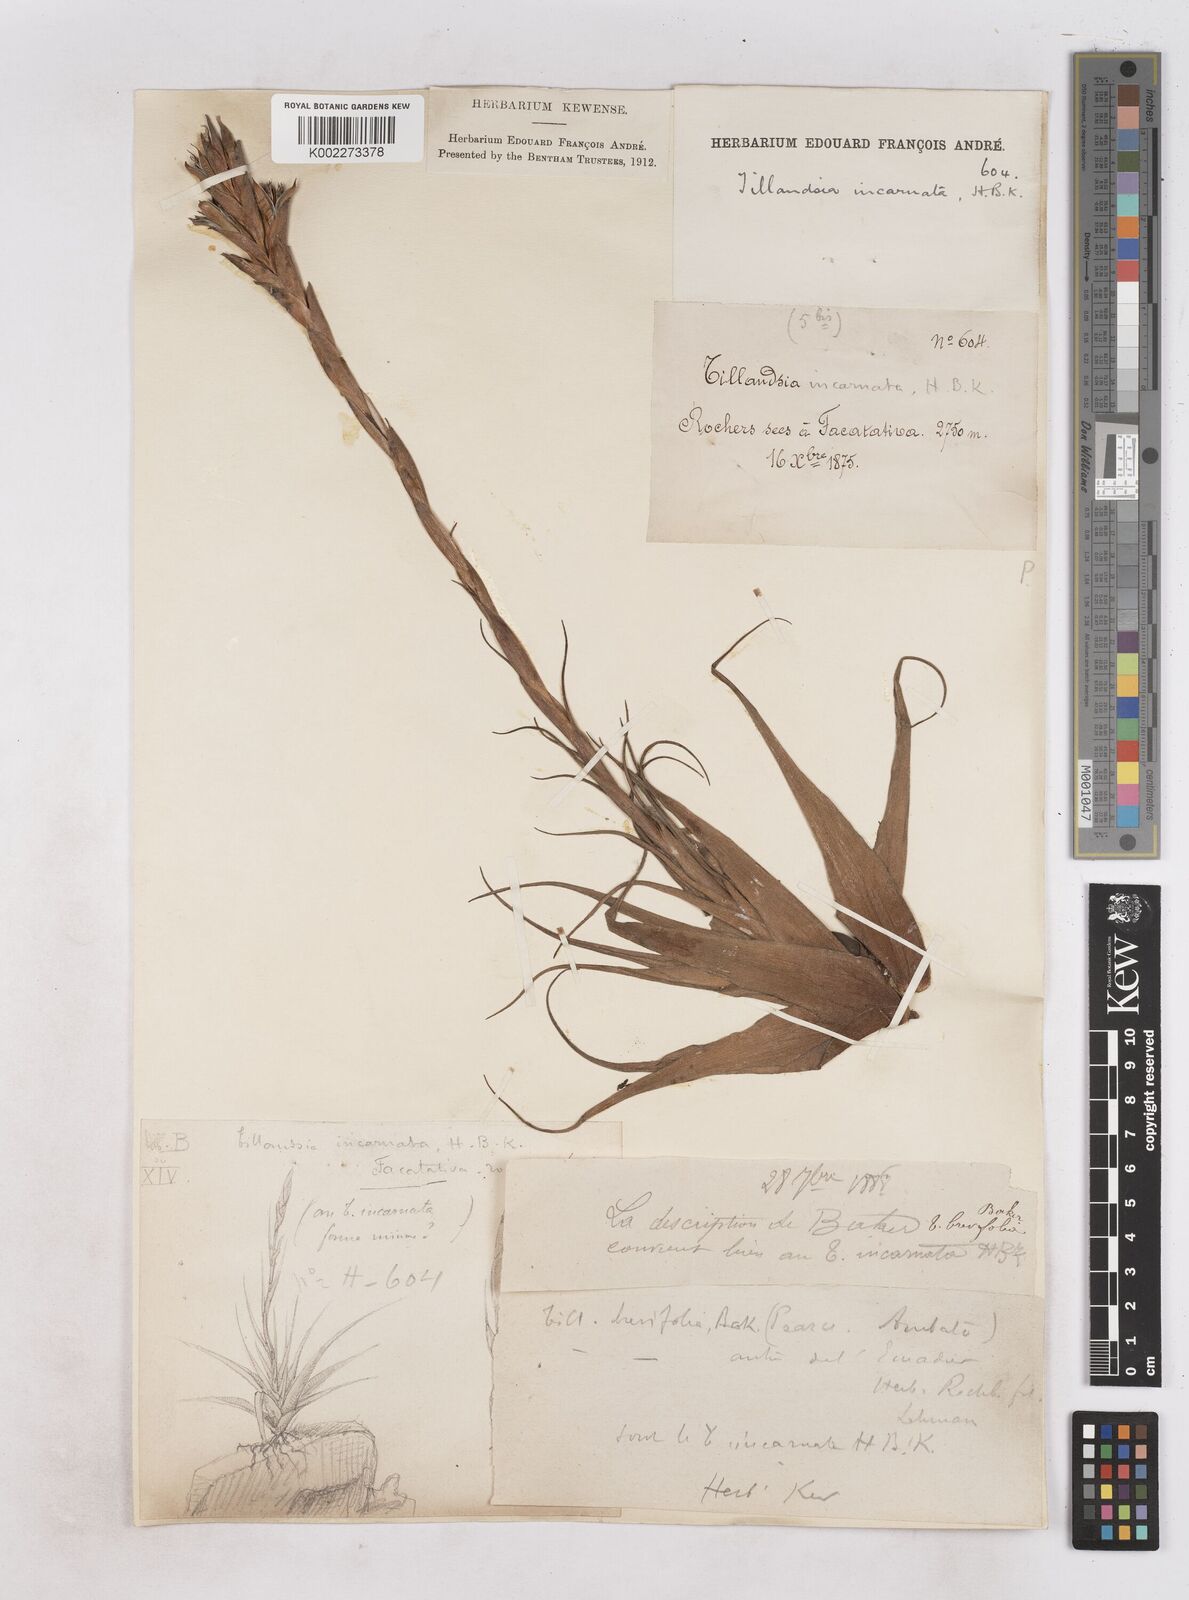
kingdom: Plantae
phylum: Tracheophyta
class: Liliopsida
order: Poales
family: Bromeliaceae
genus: Tillandsia
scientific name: Tillandsia incarnata
